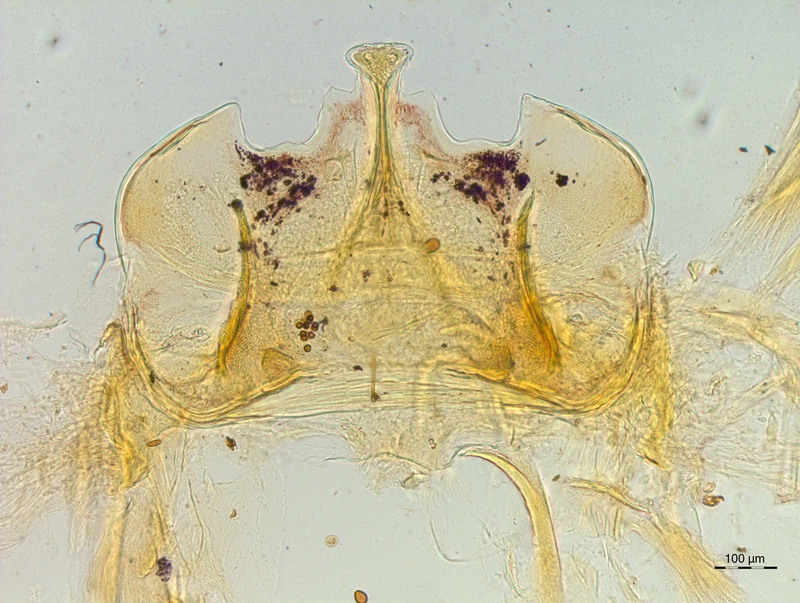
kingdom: Animalia
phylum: Arthropoda
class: Diplopoda
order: Chordeumatida
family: Craspedosomatidae
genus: Craspedosoma
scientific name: Craspedosoma taurinorum
